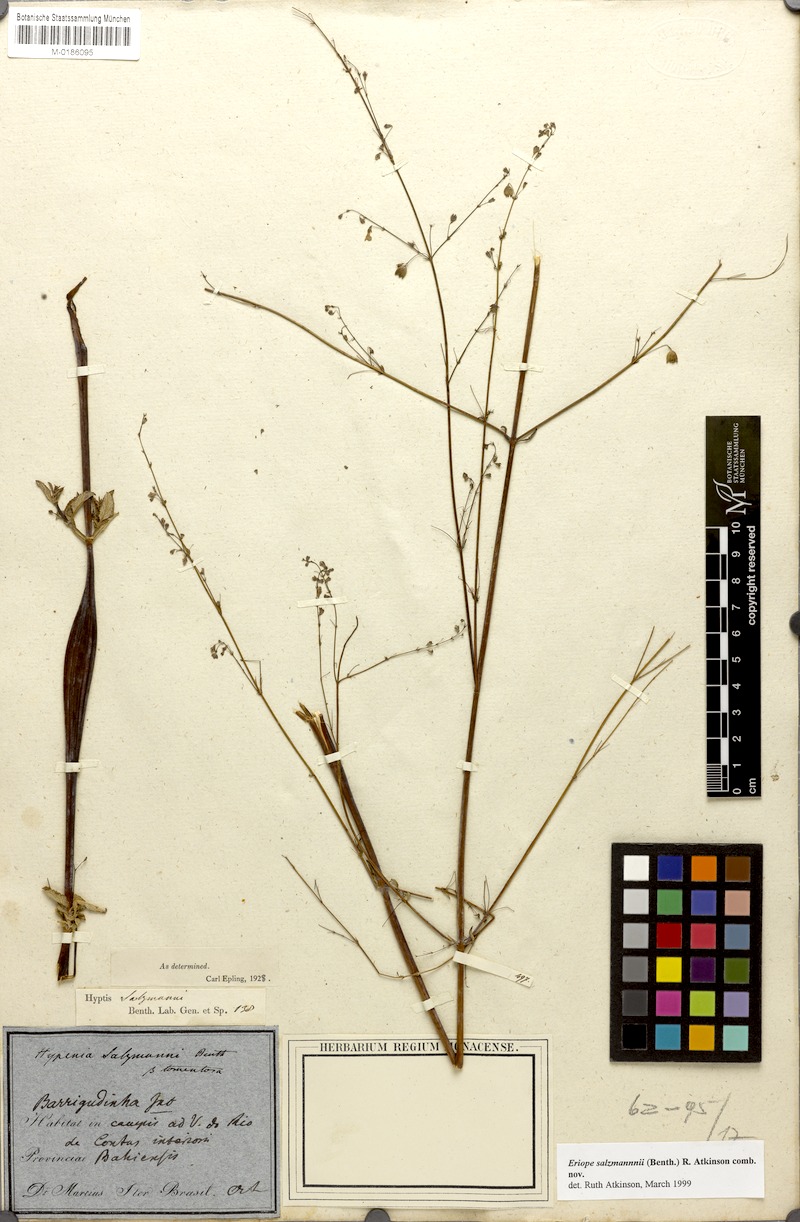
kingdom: Plantae
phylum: Tracheophyta
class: Magnoliopsida
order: Lamiales
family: Lamiaceae
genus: Hypenia
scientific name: Hypenia salzmannii
